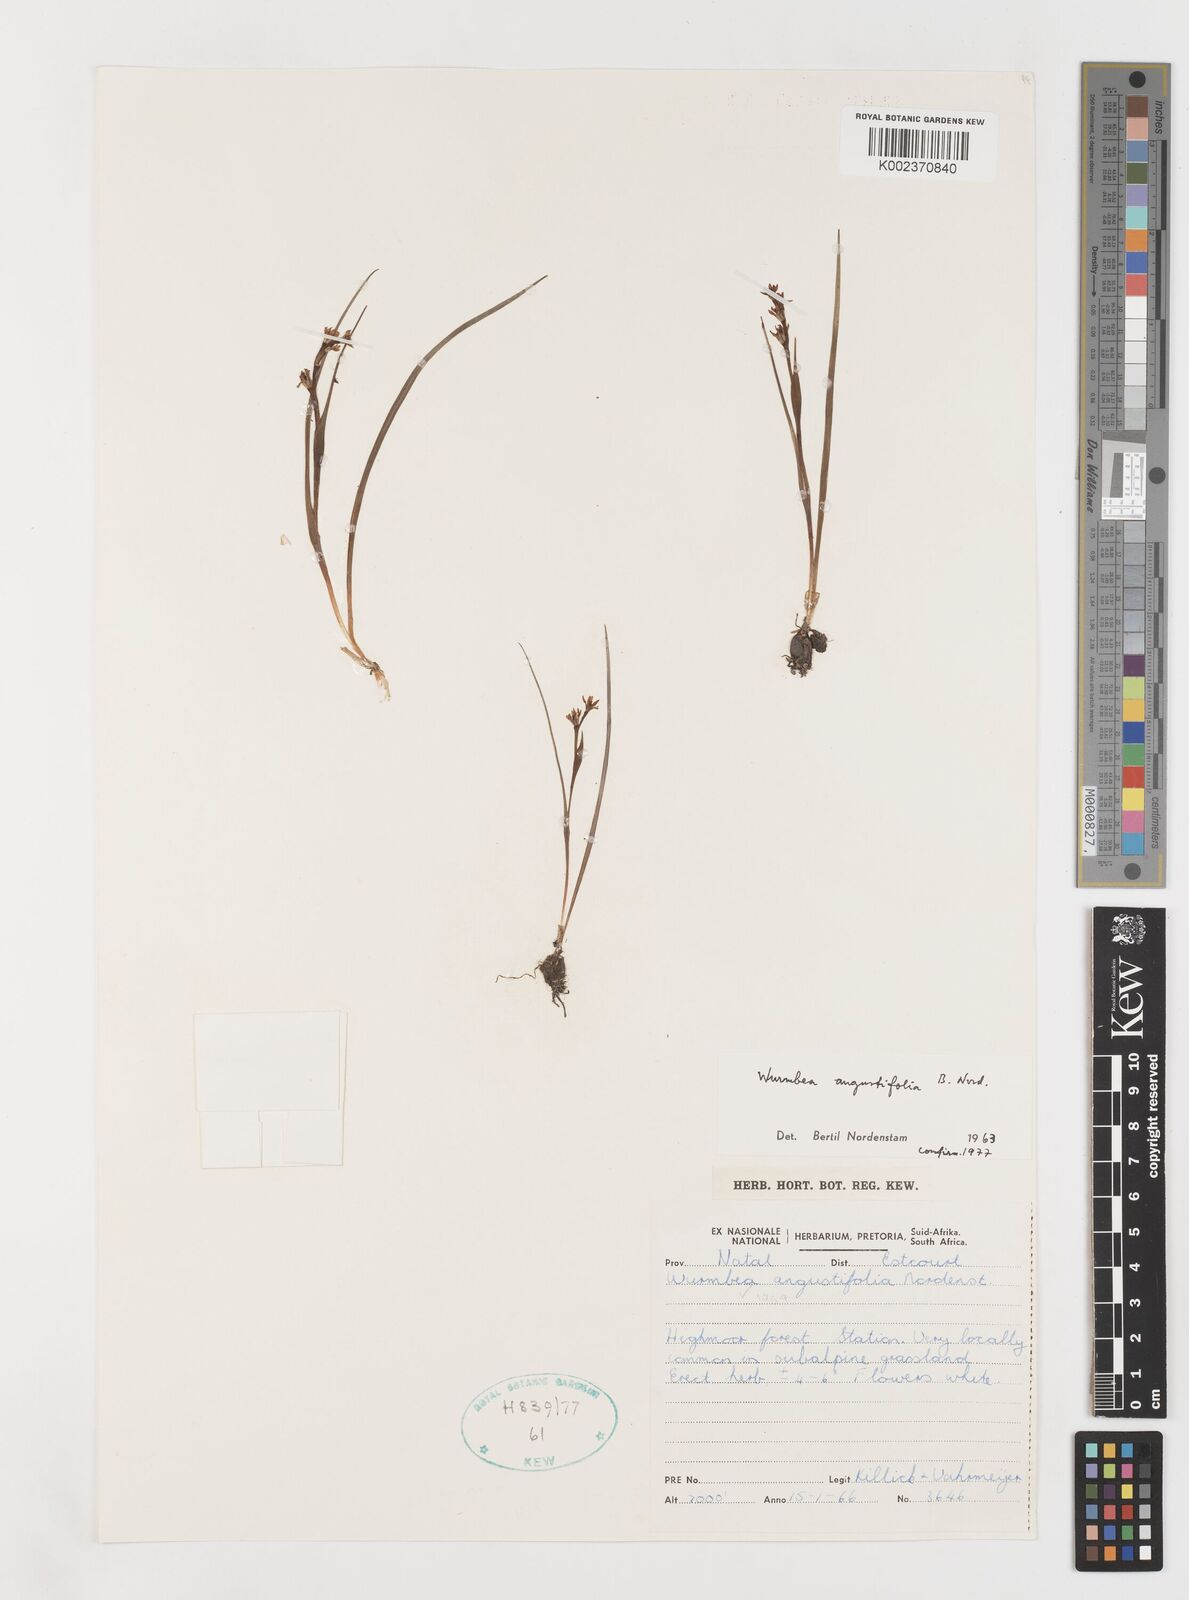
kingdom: Plantae
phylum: Tracheophyta
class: Liliopsida
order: Liliales
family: Colchicaceae
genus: Wurmbea
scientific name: Wurmbea angustifolia
